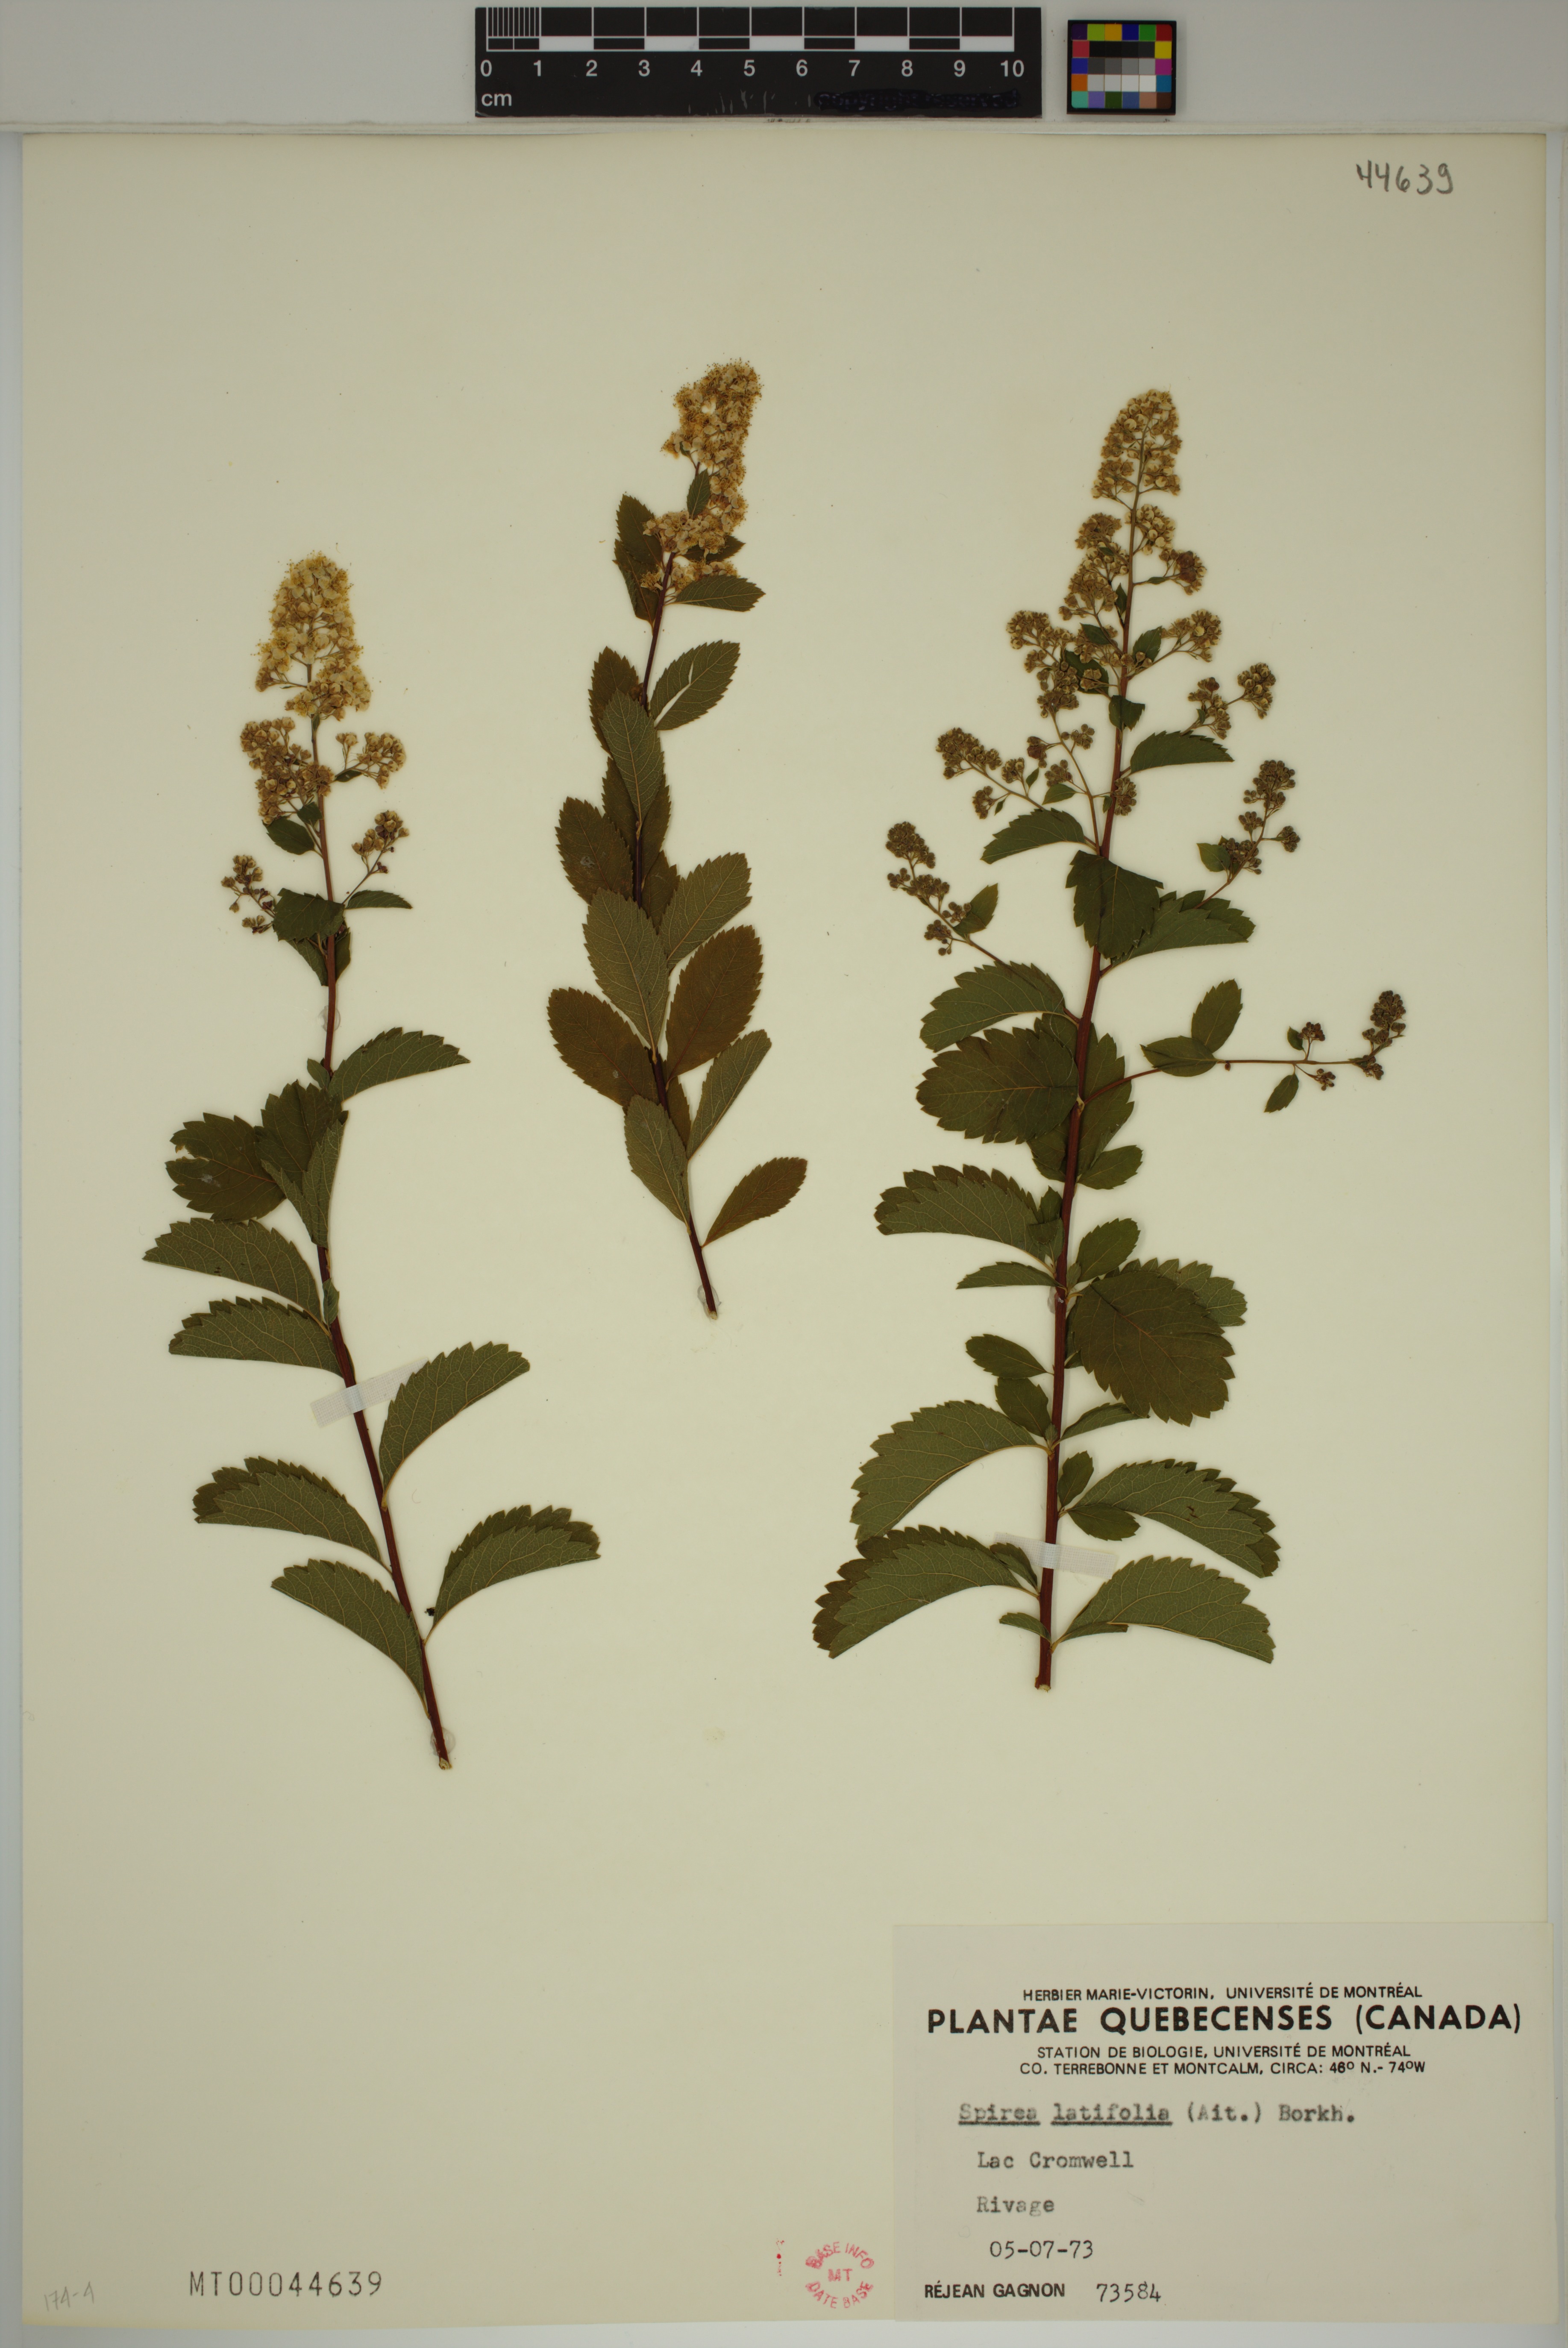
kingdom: Plantae
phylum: Tracheophyta
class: Magnoliopsida
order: Rosales
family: Rosaceae
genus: Spiraea
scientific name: Spiraea alba
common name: Pale bridewort
